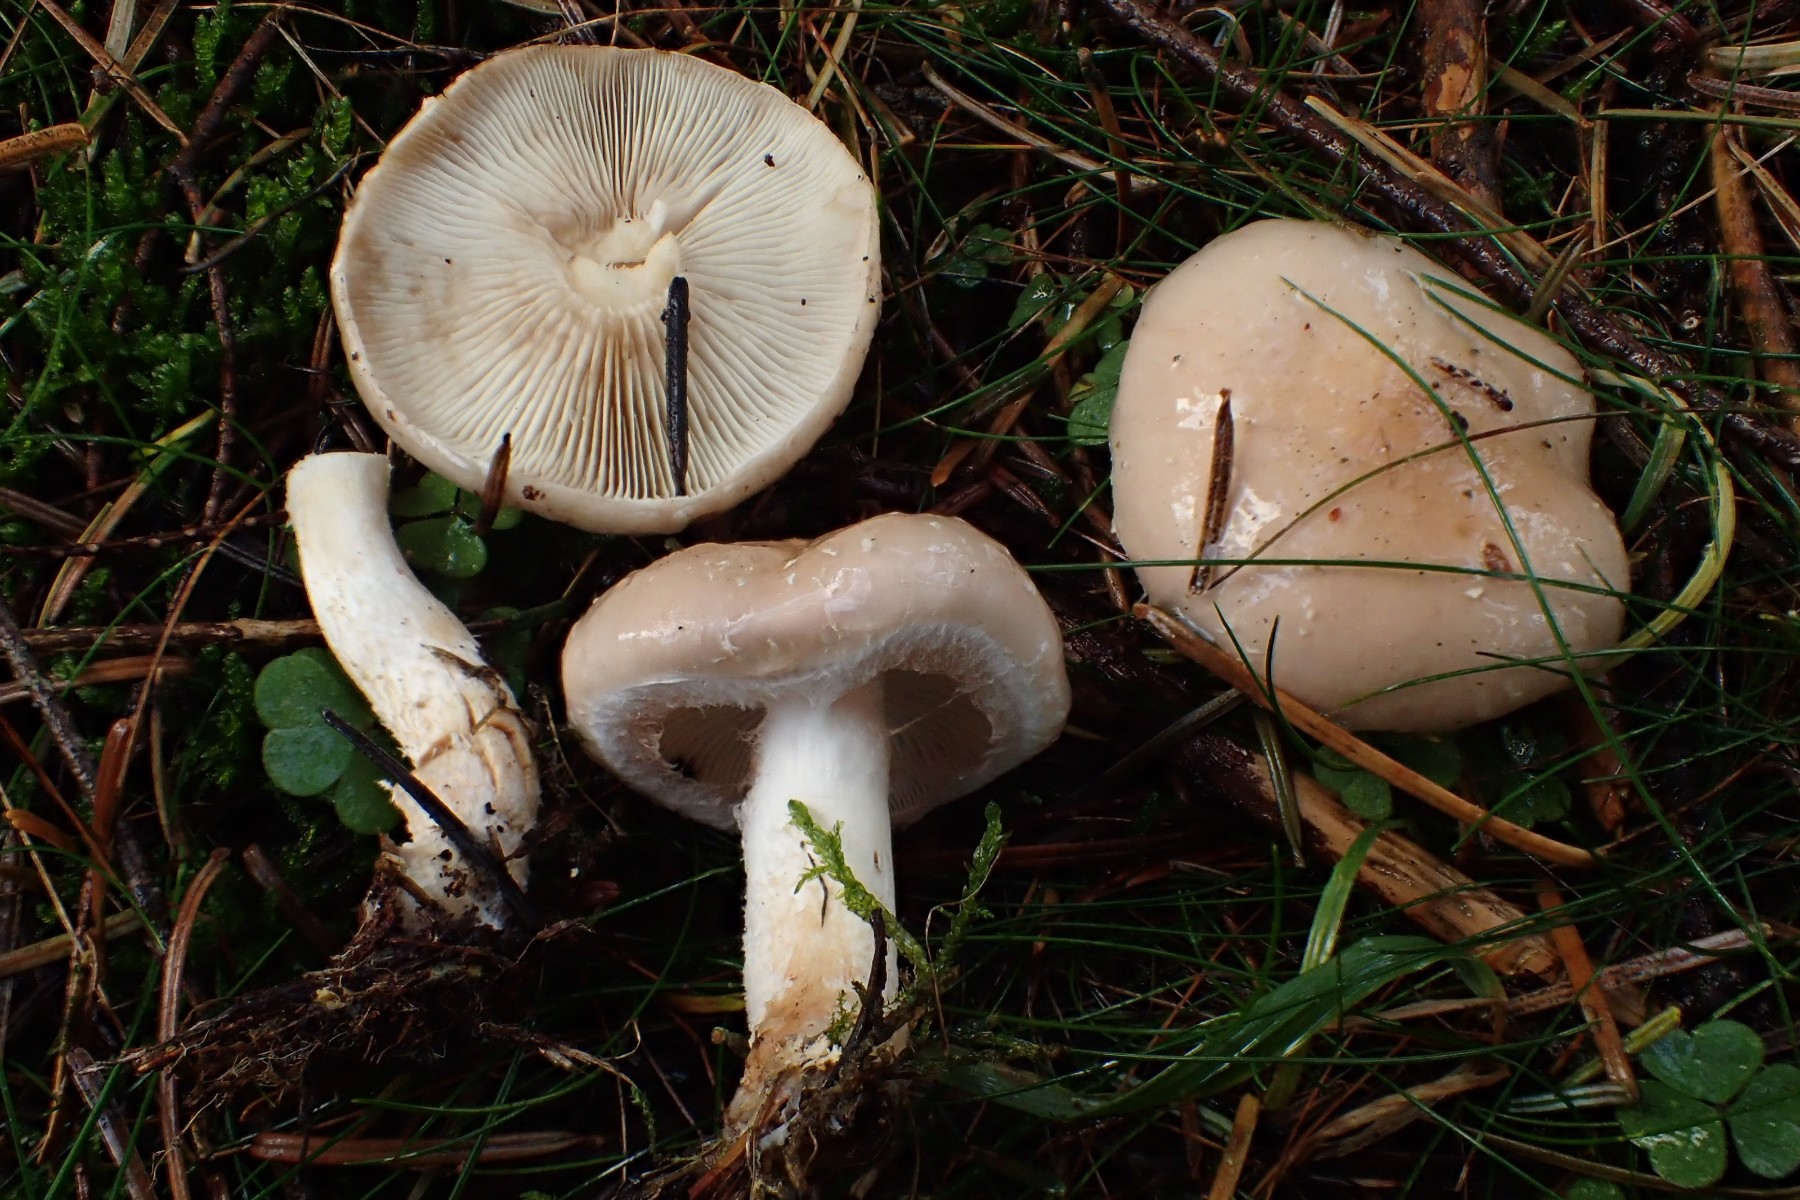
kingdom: Fungi
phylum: Basidiomycota
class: Agaricomycetes
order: Agaricales
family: Strophariaceae
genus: Pholiota
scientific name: Pholiota lenta
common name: løv-skælhat
